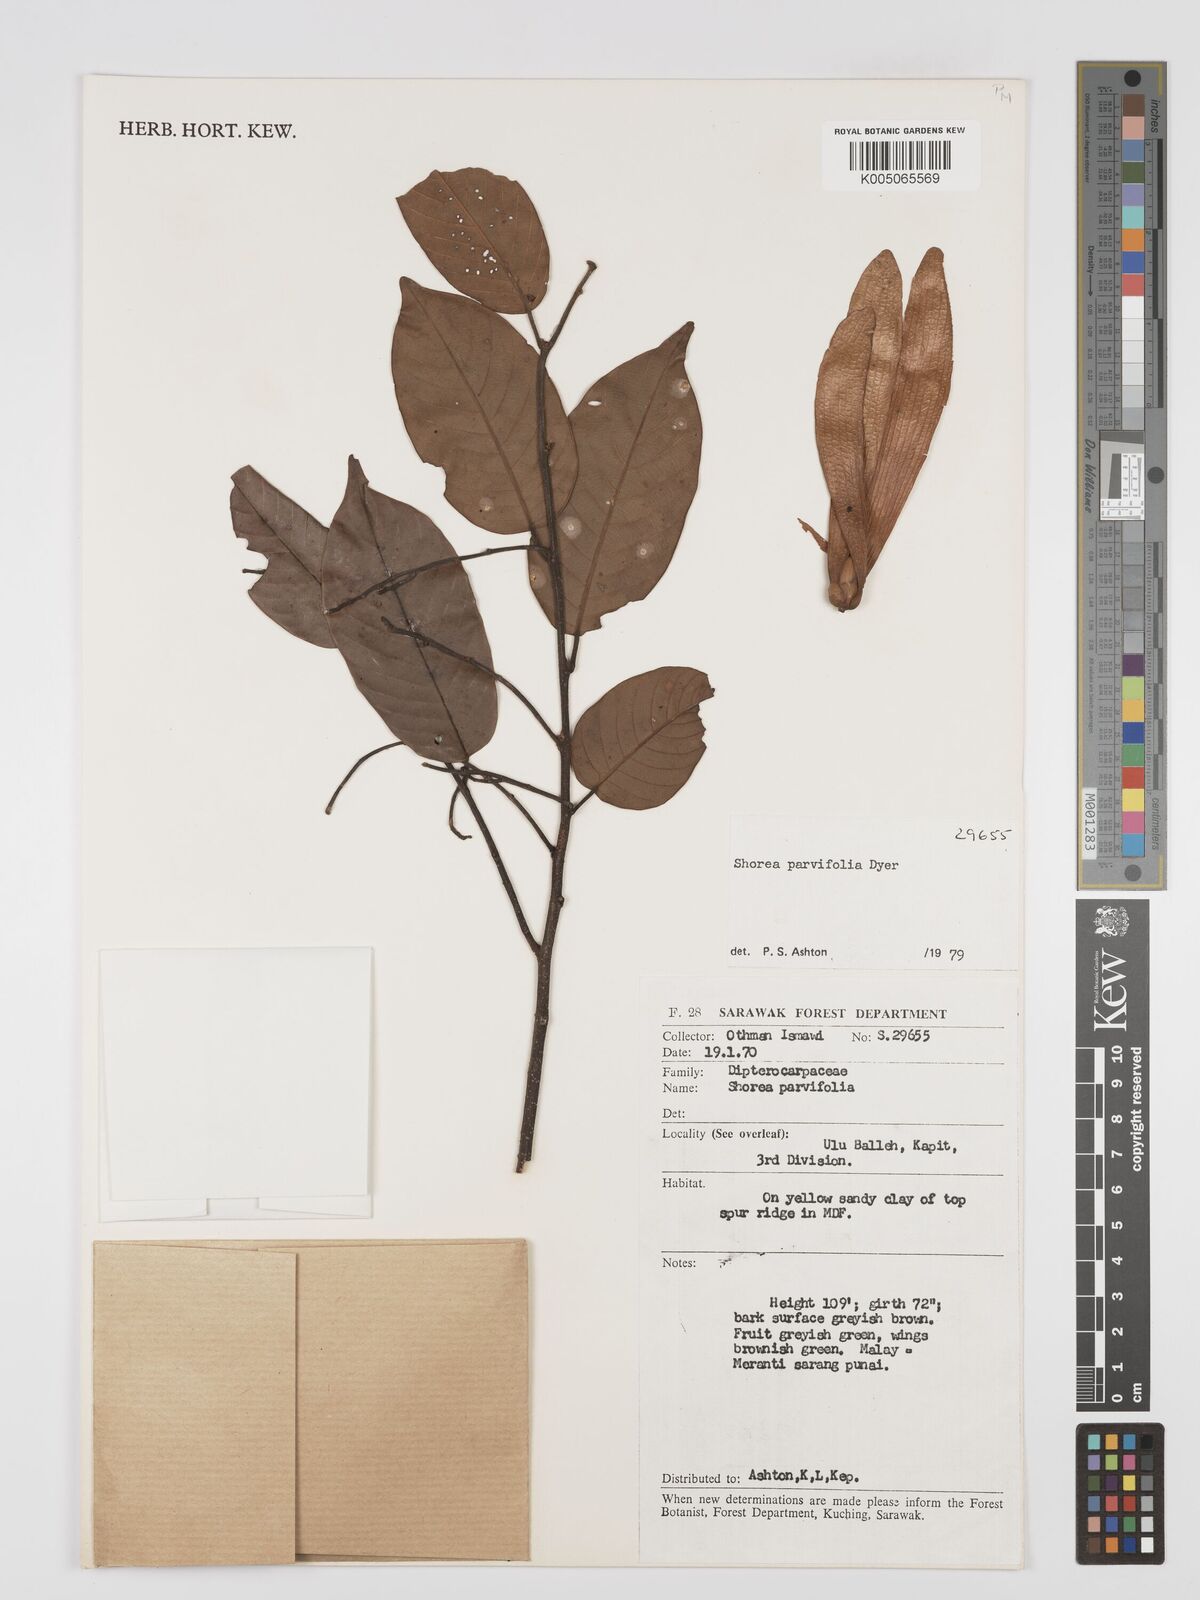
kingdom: Plantae
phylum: Tracheophyta
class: Magnoliopsida
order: Malvales
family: Dipterocarpaceae
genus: Shorea
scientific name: Shorea parvifolia
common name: Light red meranti
